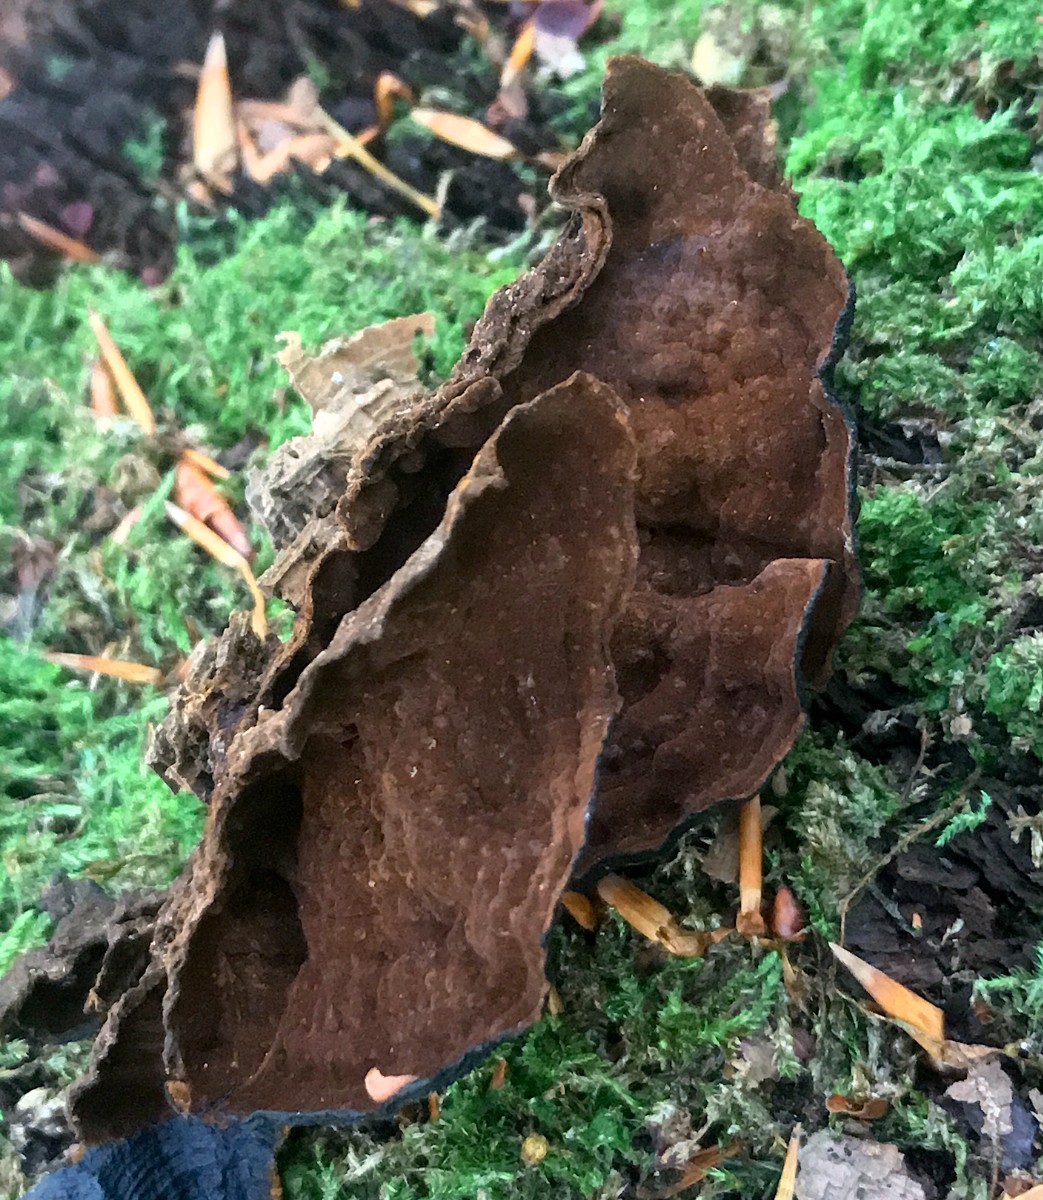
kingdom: Fungi
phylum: Basidiomycota
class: Agaricomycetes
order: Hymenochaetales
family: Hymenochaetaceae
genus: Hymenochaete
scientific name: Hymenochaete rubiginosa
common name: stiv ruslædersvamp
